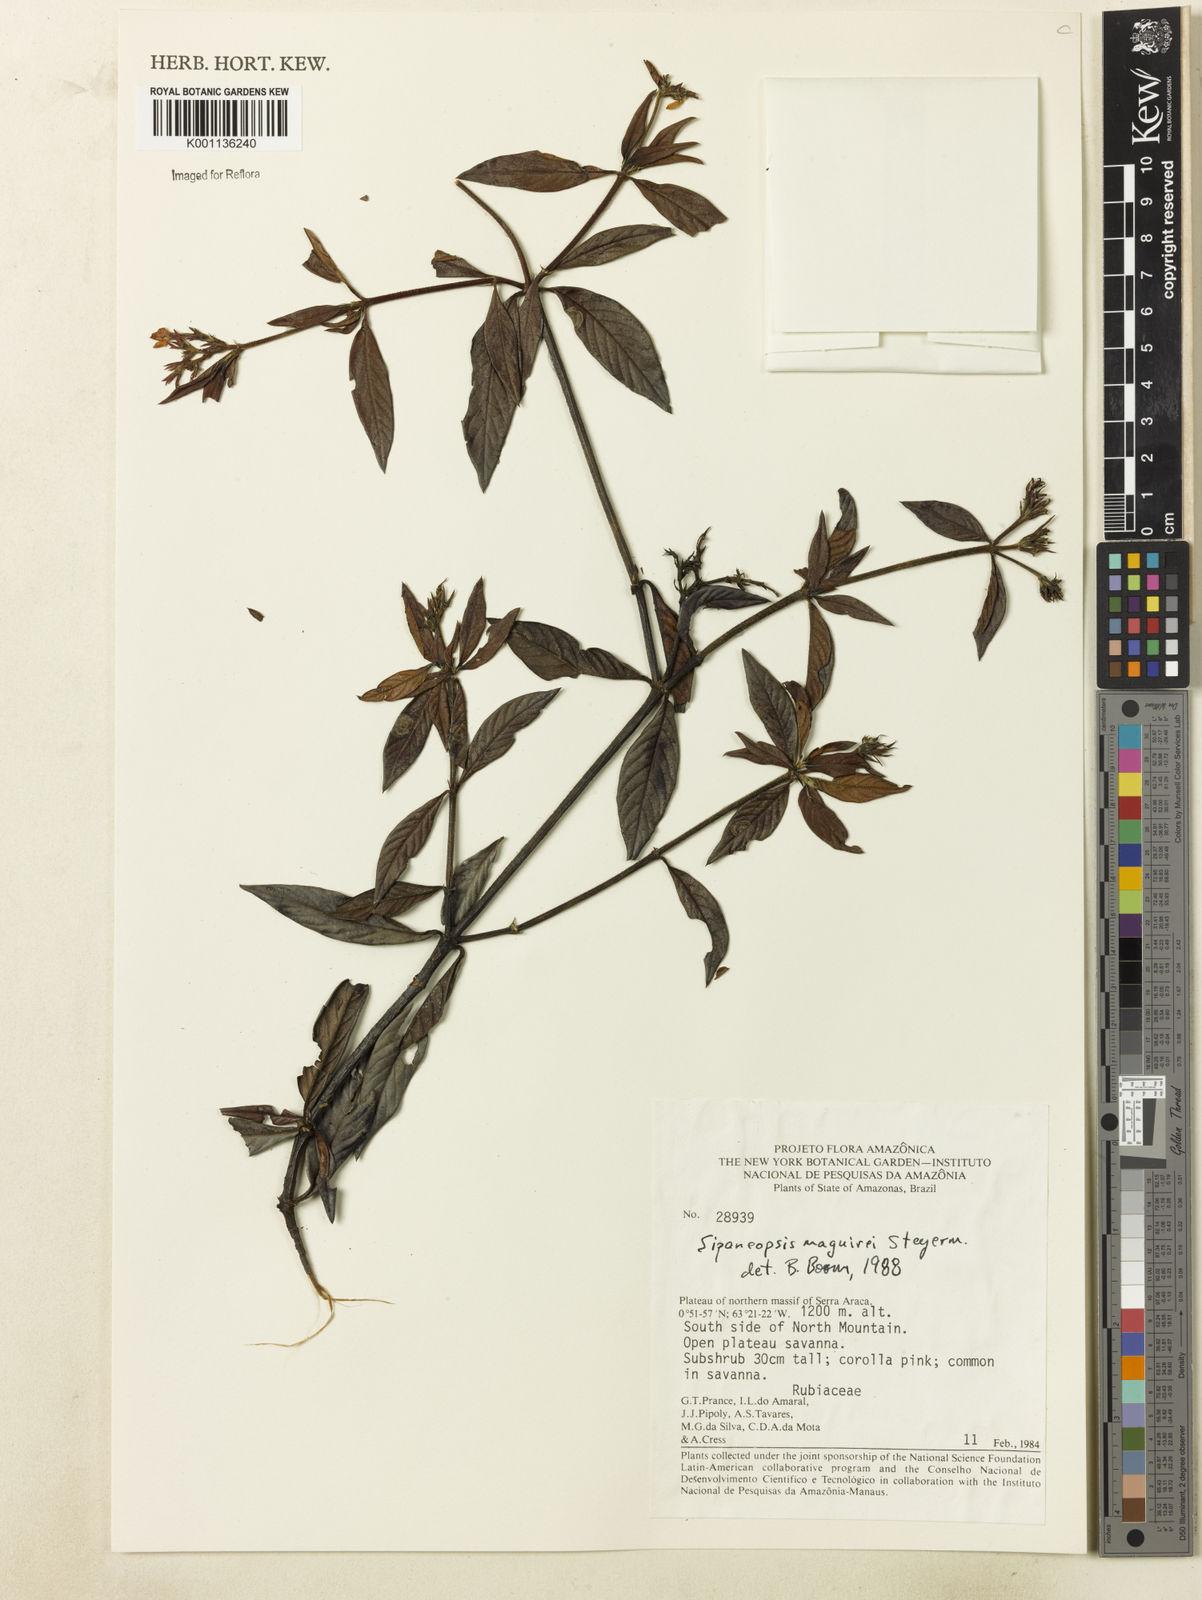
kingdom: Plantae
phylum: Tracheophyta
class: Magnoliopsida
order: Gentianales
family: Rubiaceae
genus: Sipaneopsis
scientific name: Sipaneopsis maguirei
